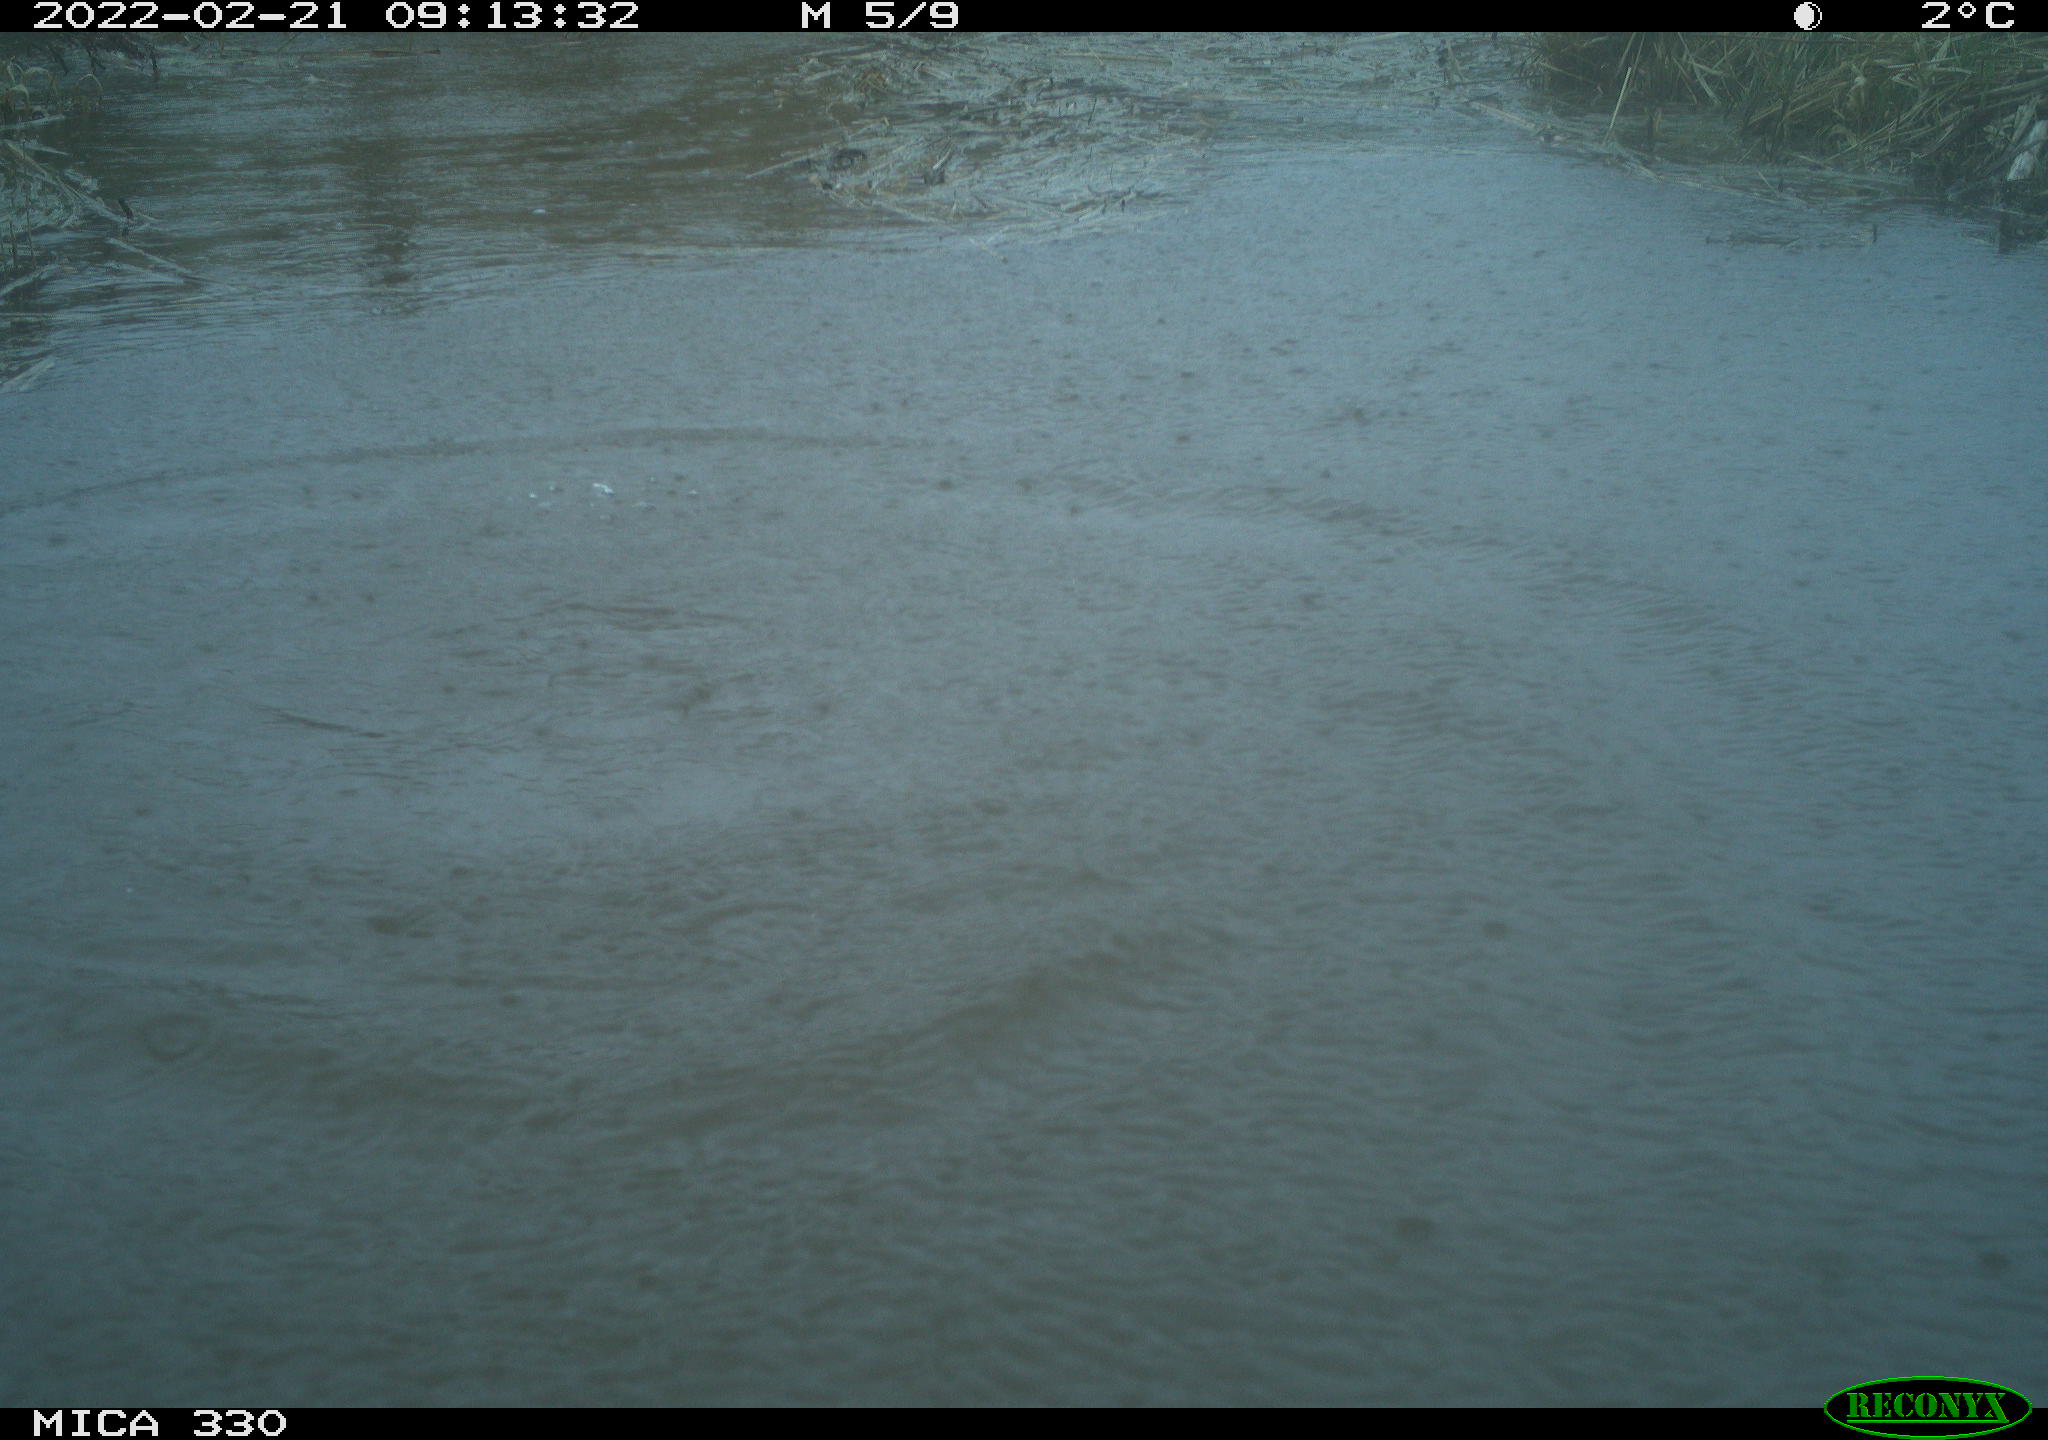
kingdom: Animalia
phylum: Chordata
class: Aves
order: Suliformes
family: Phalacrocoracidae
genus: Phalacrocorax
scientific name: Phalacrocorax carbo
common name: Great cormorant
